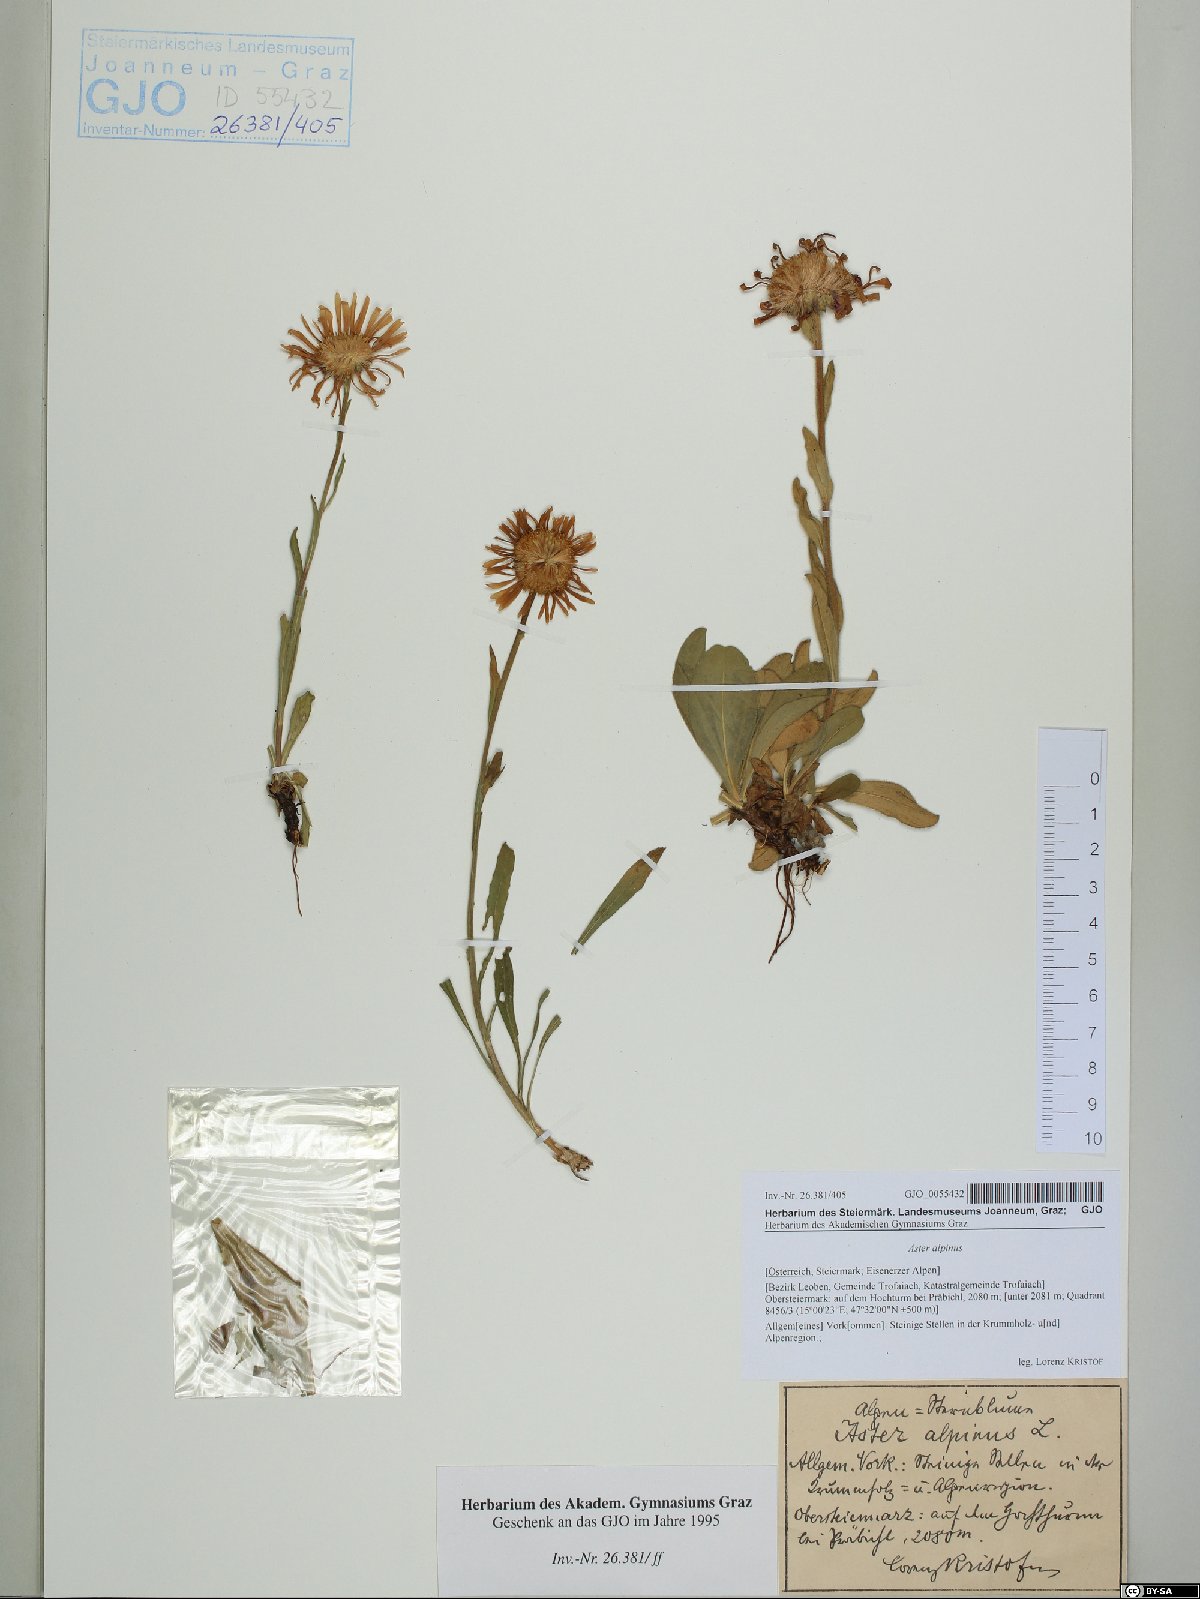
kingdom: Plantae
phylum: Tracheophyta
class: Magnoliopsida
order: Asterales
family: Asteraceae
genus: Aster
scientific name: Aster alpinus
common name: Alpine aster
